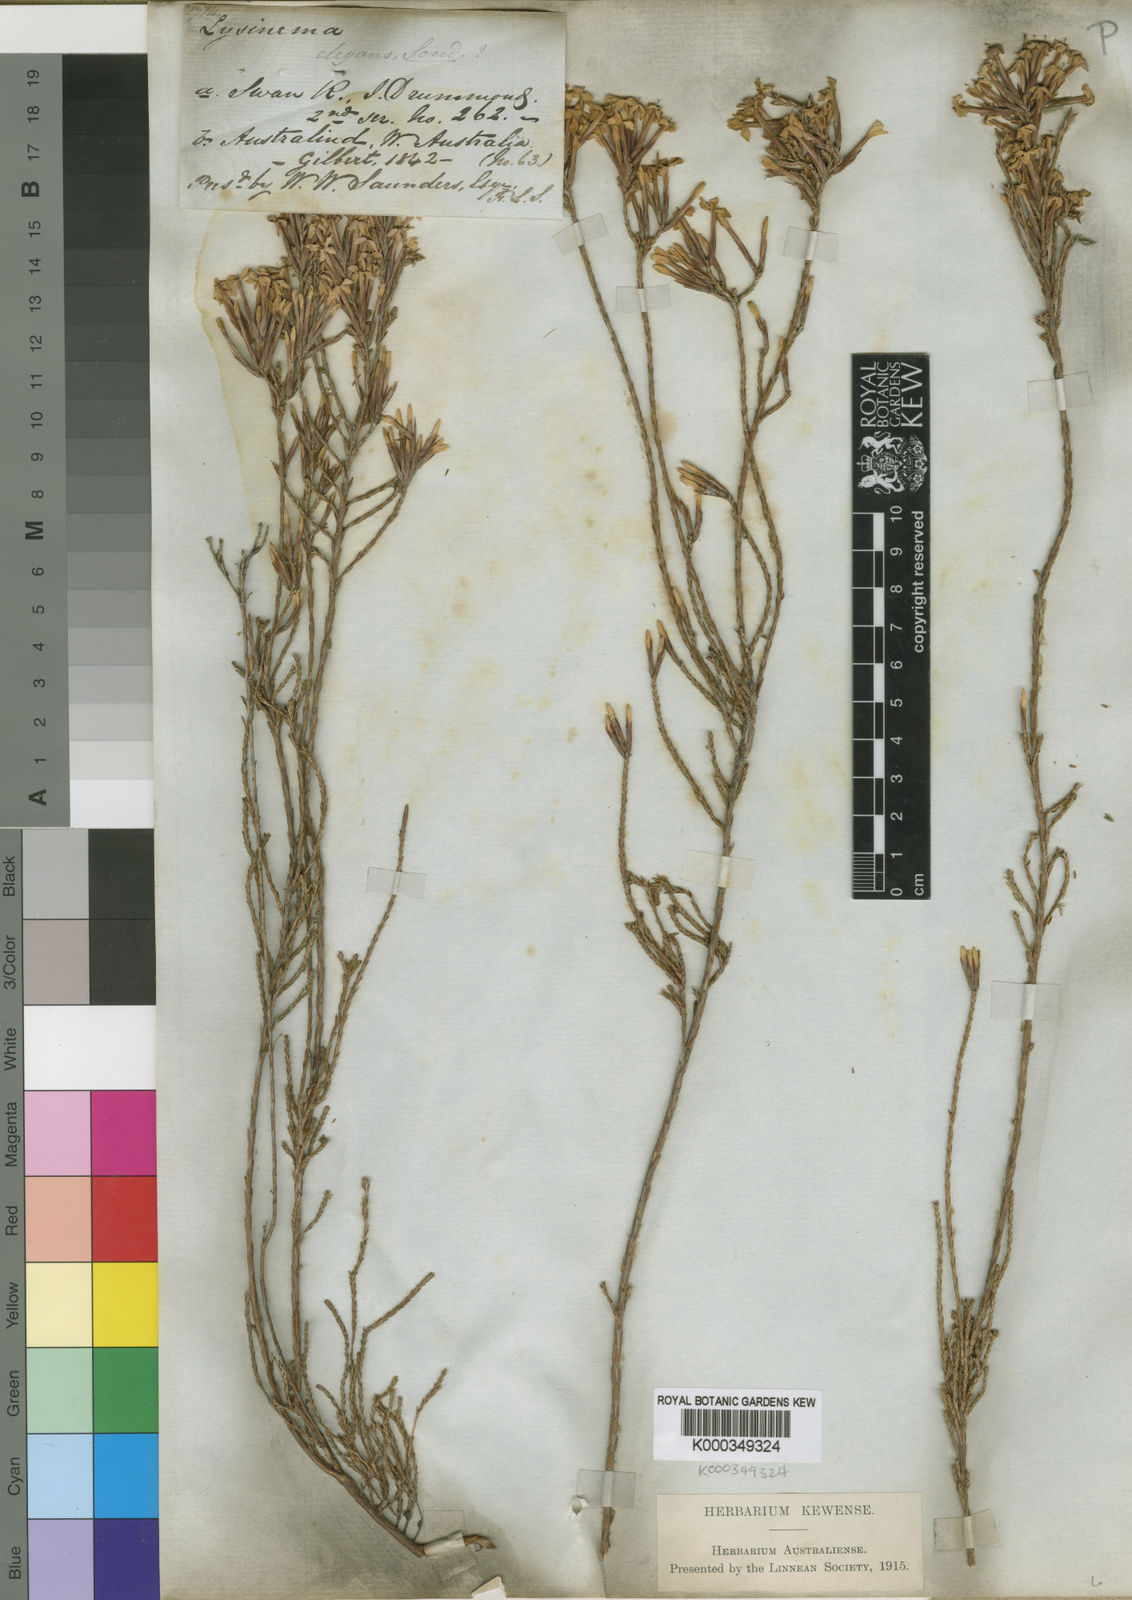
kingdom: Plantae
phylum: Tracheophyta
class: Magnoliopsida
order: Ericales
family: Ericaceae
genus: Lysinema
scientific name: Lysinema elegans
